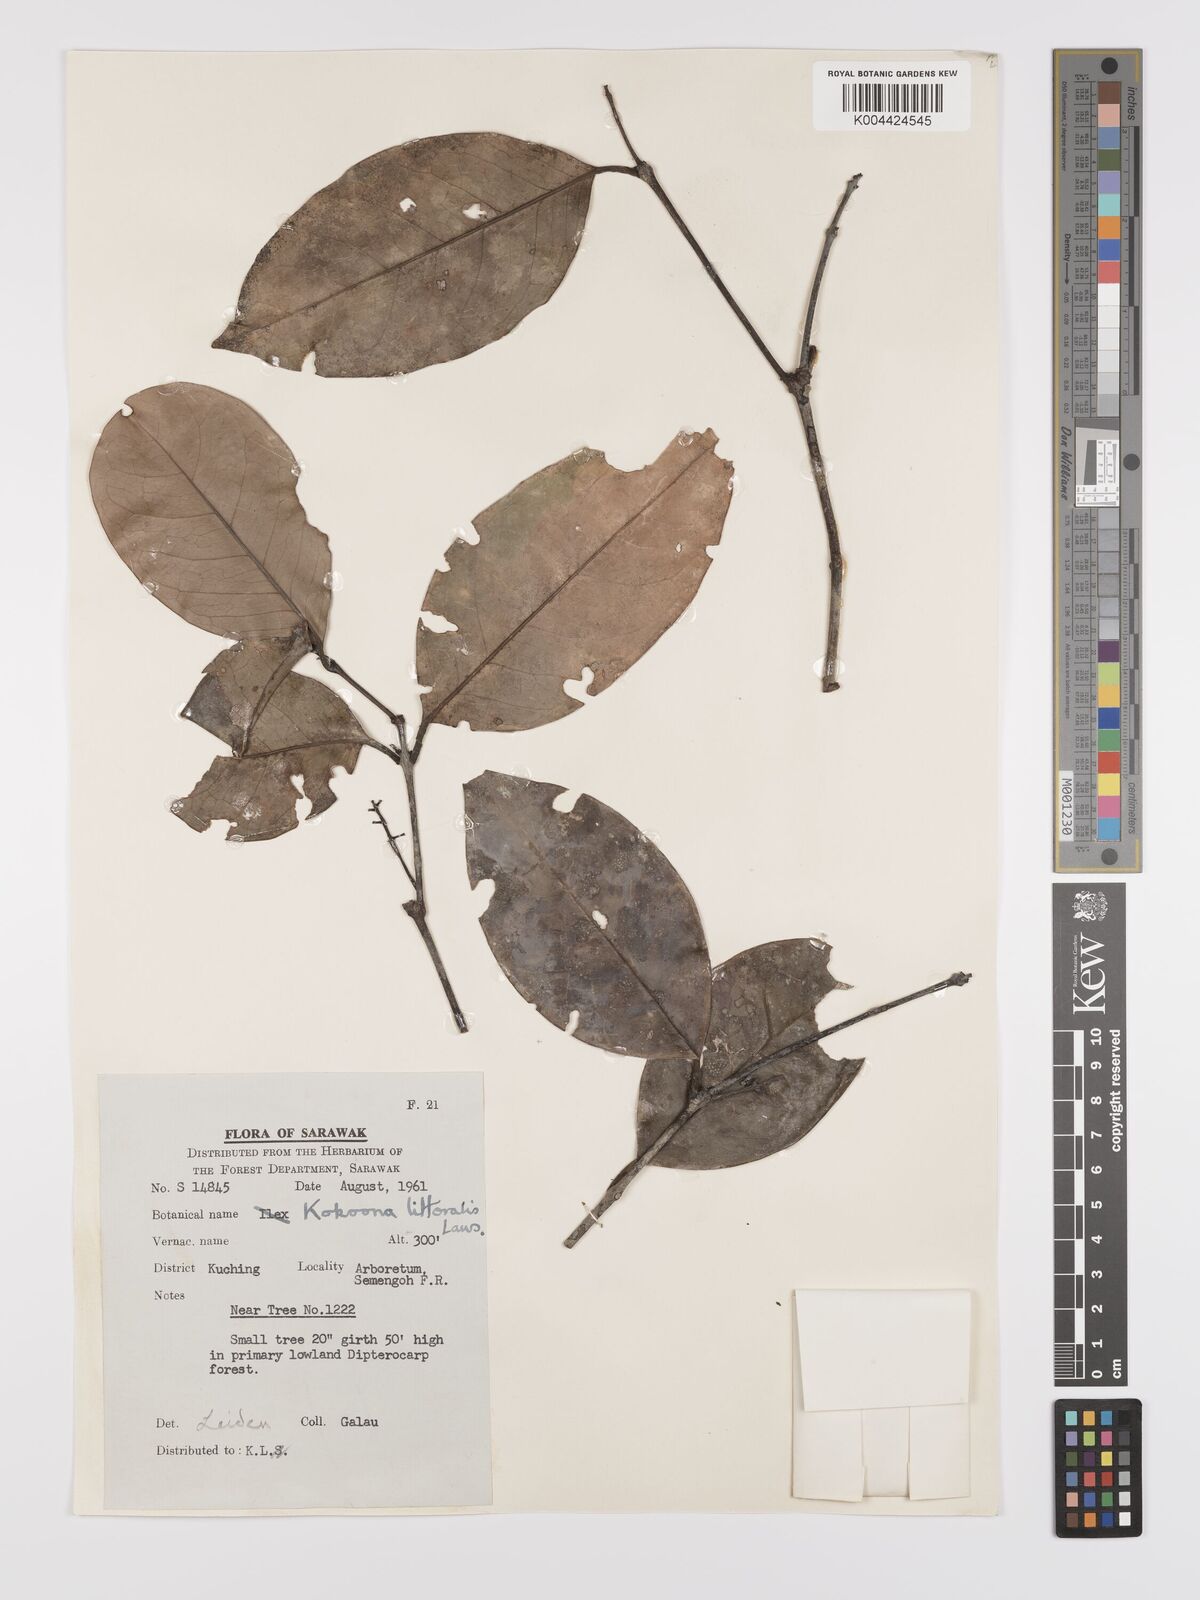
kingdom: Plantae
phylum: Tracheophyta
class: Magnoliopsida
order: Celastrales
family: Celastraceae
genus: Kokoona
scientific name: Kokoona littoralis
